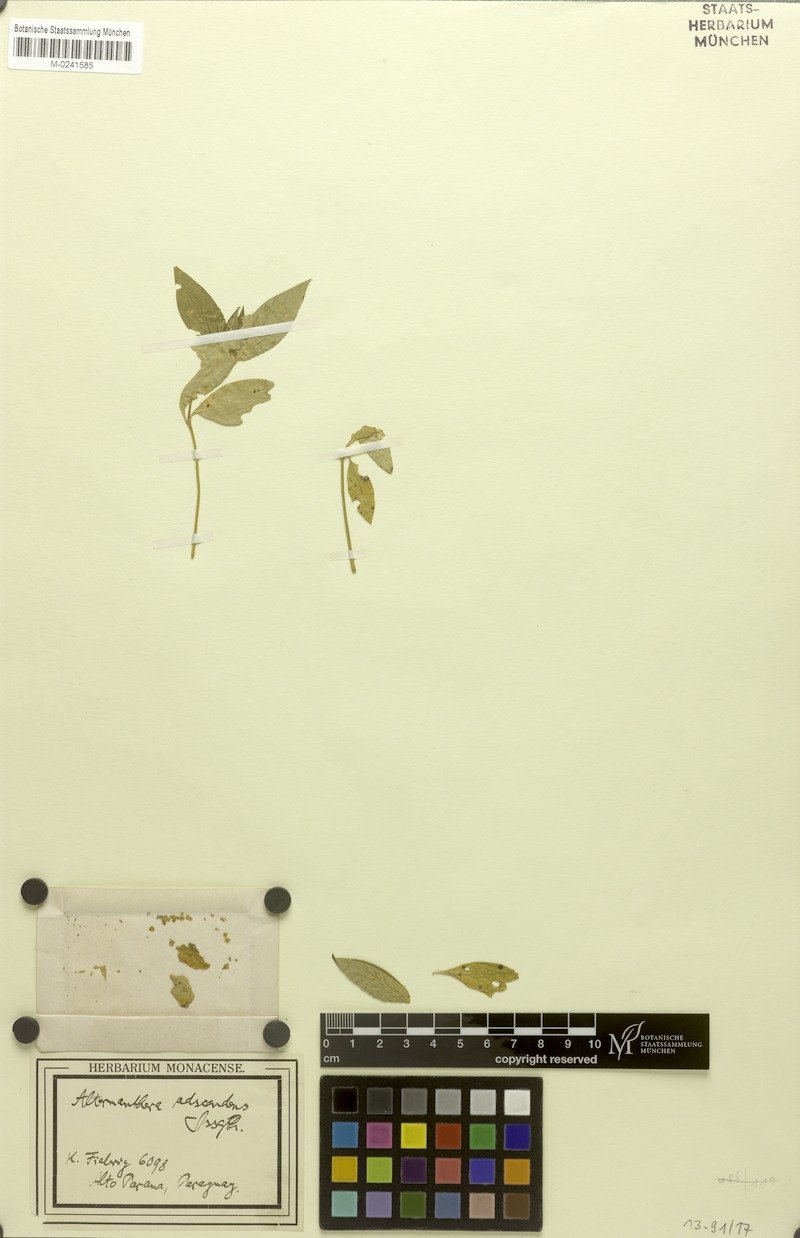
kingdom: Plantae
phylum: Tracheophyta
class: Magnoliopsida
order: Caryophyllales
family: Amaranthaceae
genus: Alternanthera
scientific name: Alternanthera adscendens
